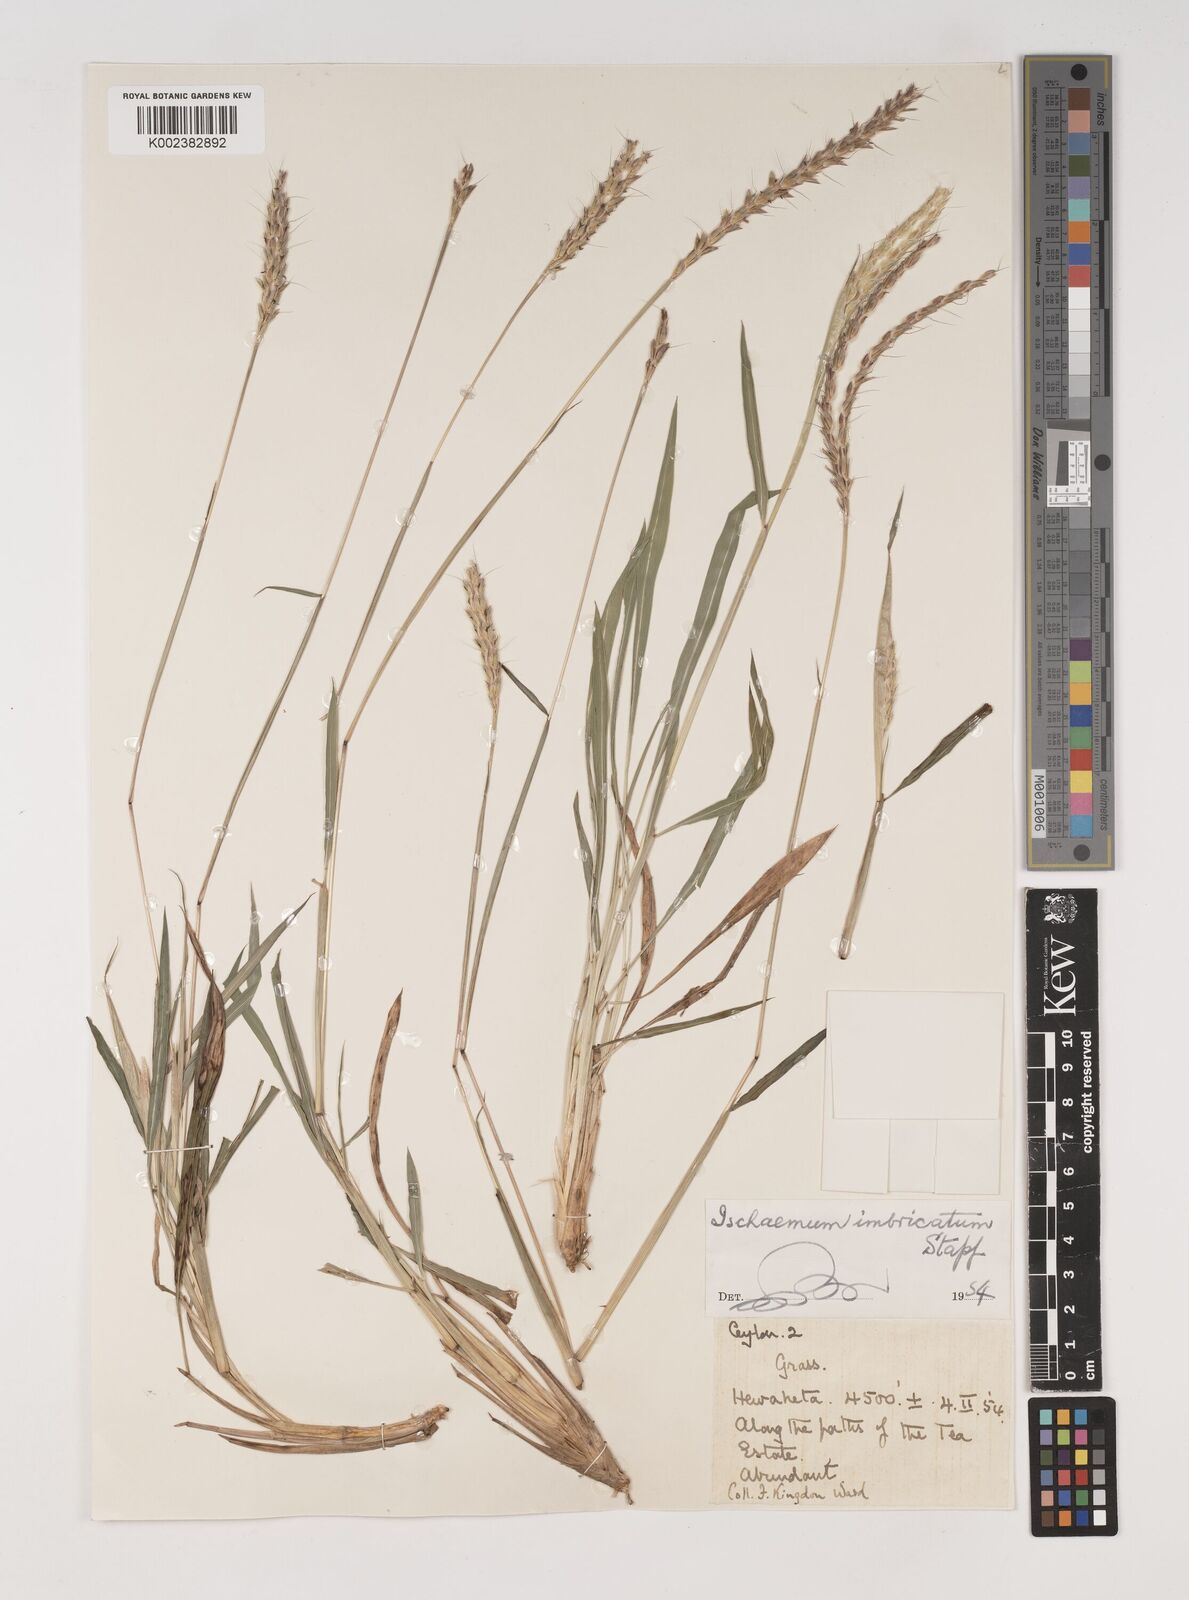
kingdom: Plantae
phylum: Tracheophyta
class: Liliopsida
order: Poales
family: Poaceae
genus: Ischaemum
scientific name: Ischaemum
